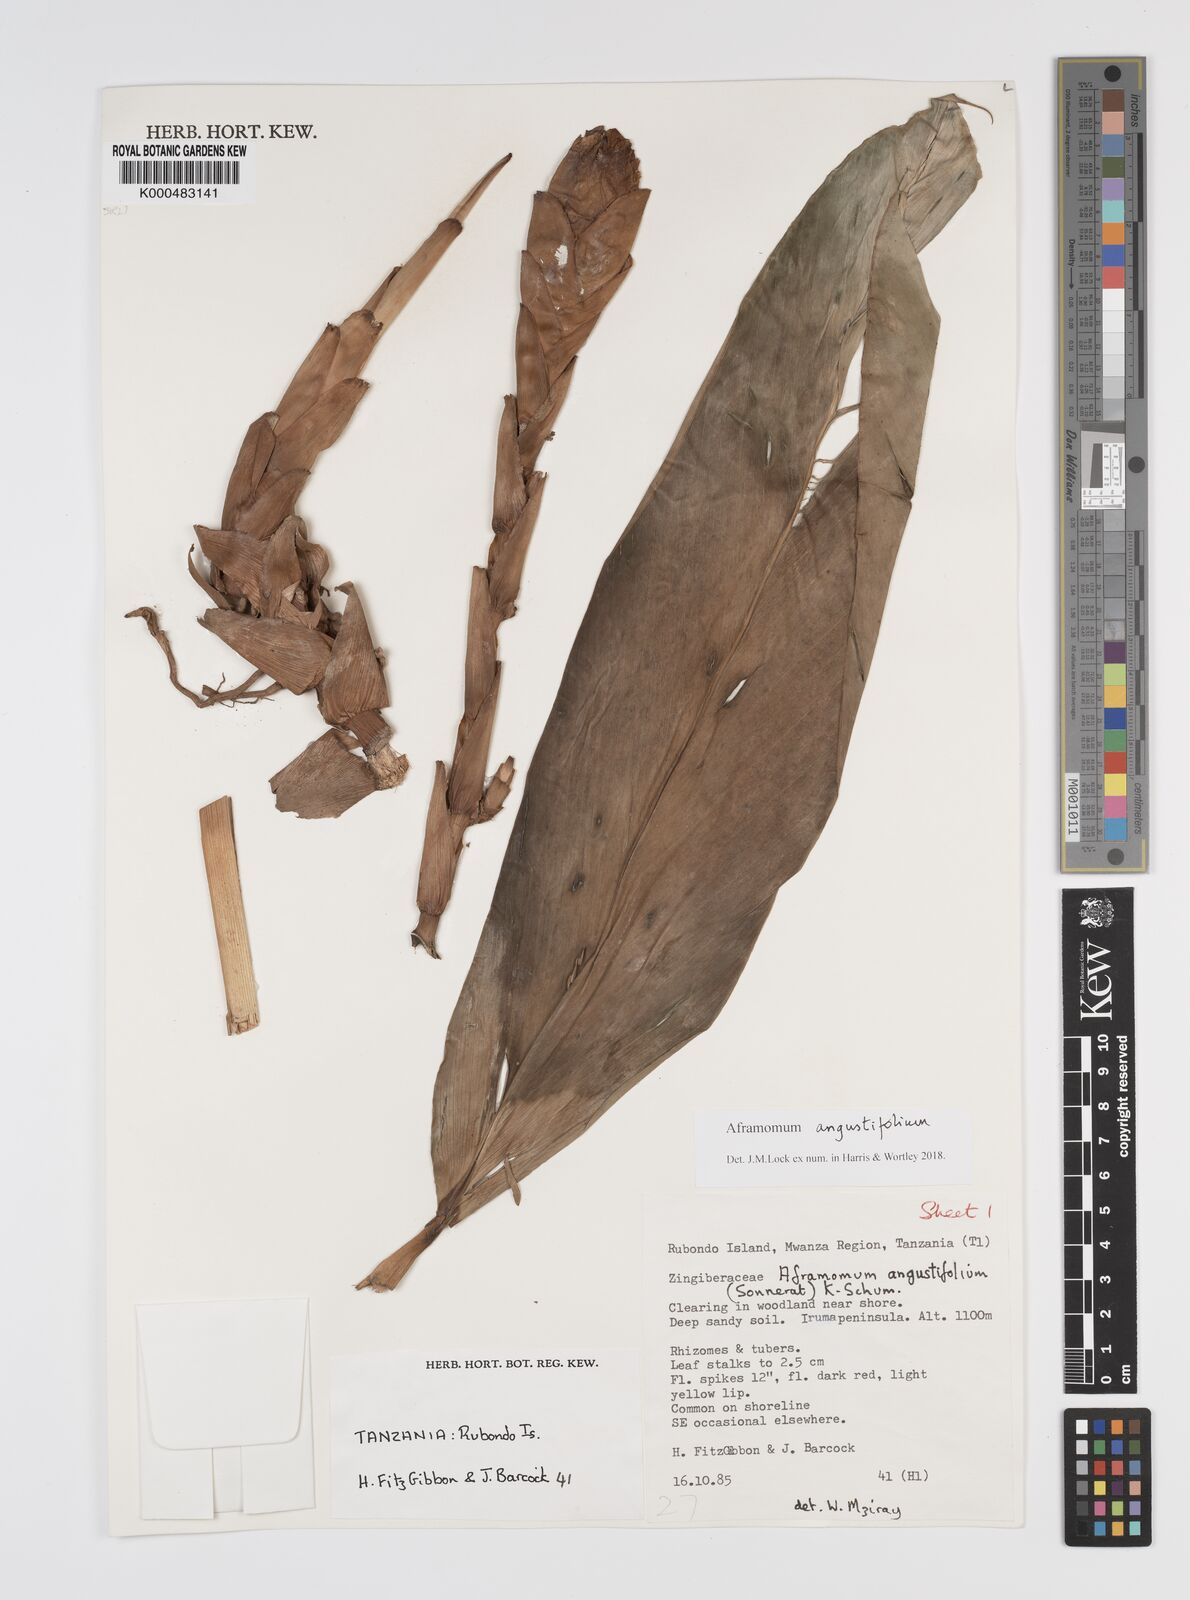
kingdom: Plantae
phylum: Tracheophyta
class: Liliopsida
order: Zingiberales
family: Zingiberaceae
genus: Aframomum
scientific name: Aframomum angustifolium
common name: Guinea grains
